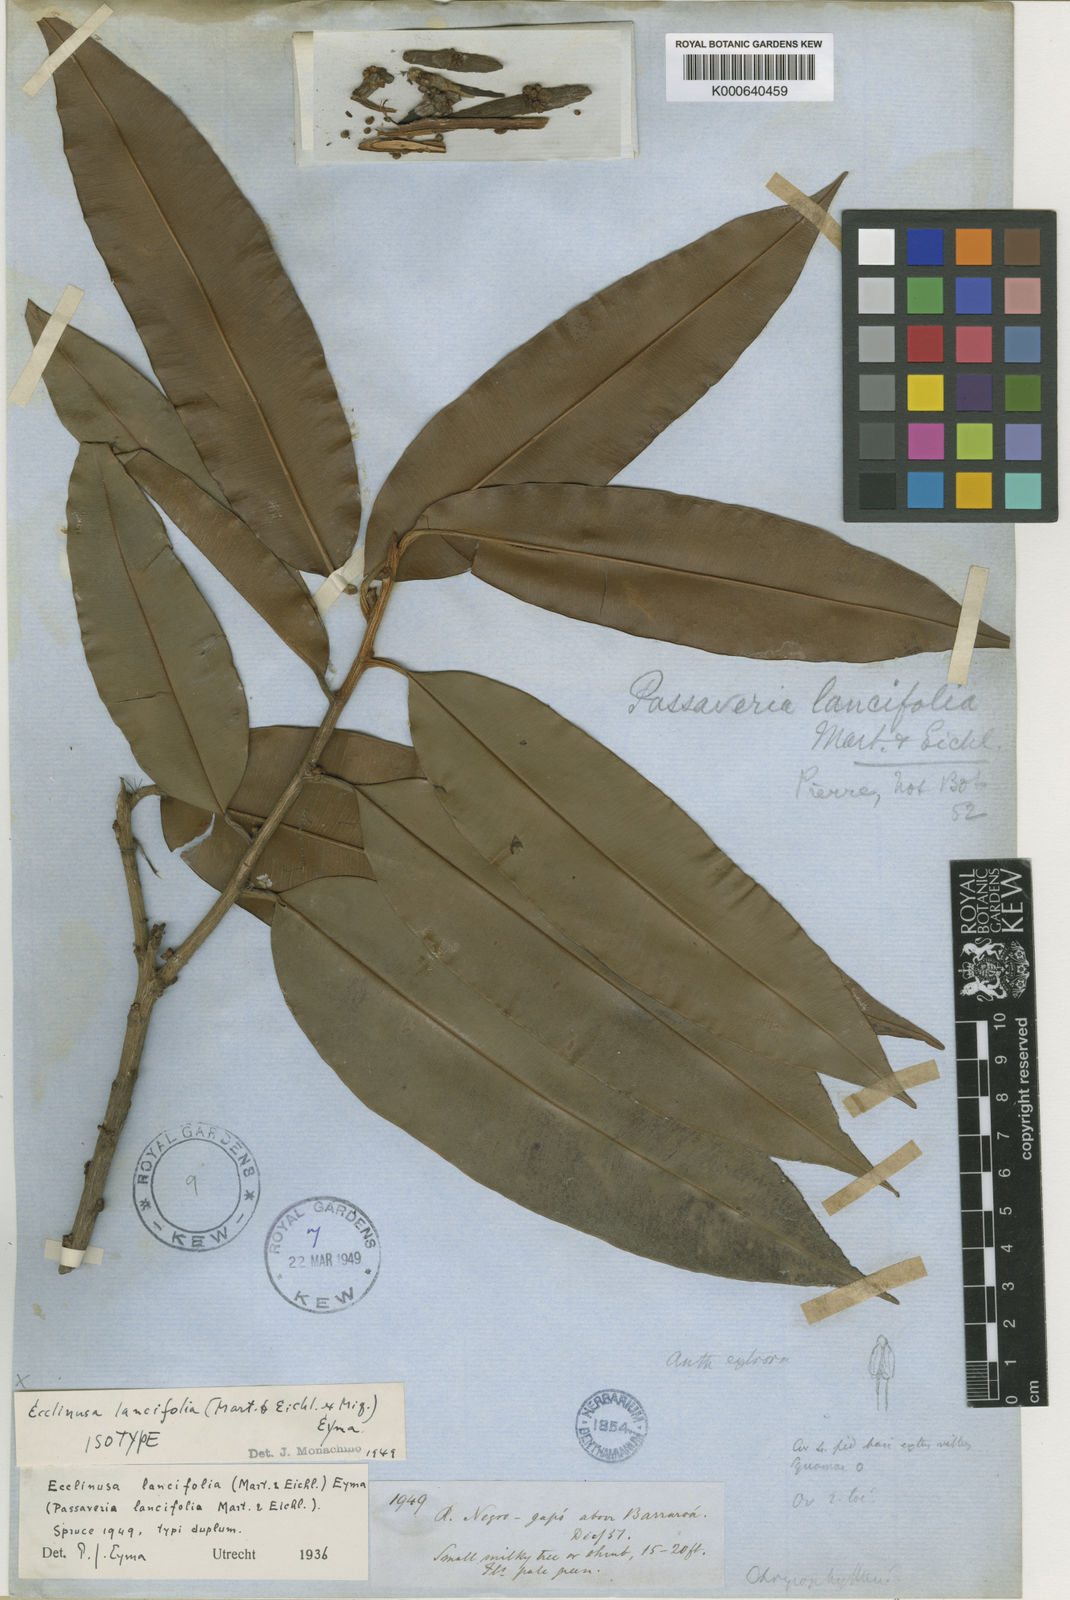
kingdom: Plantae
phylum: Tracheophyta
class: Magnoliopsida
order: Ericales
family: Sapotaceae
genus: Ecclinusa
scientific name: Ecclinusa lancifolia
